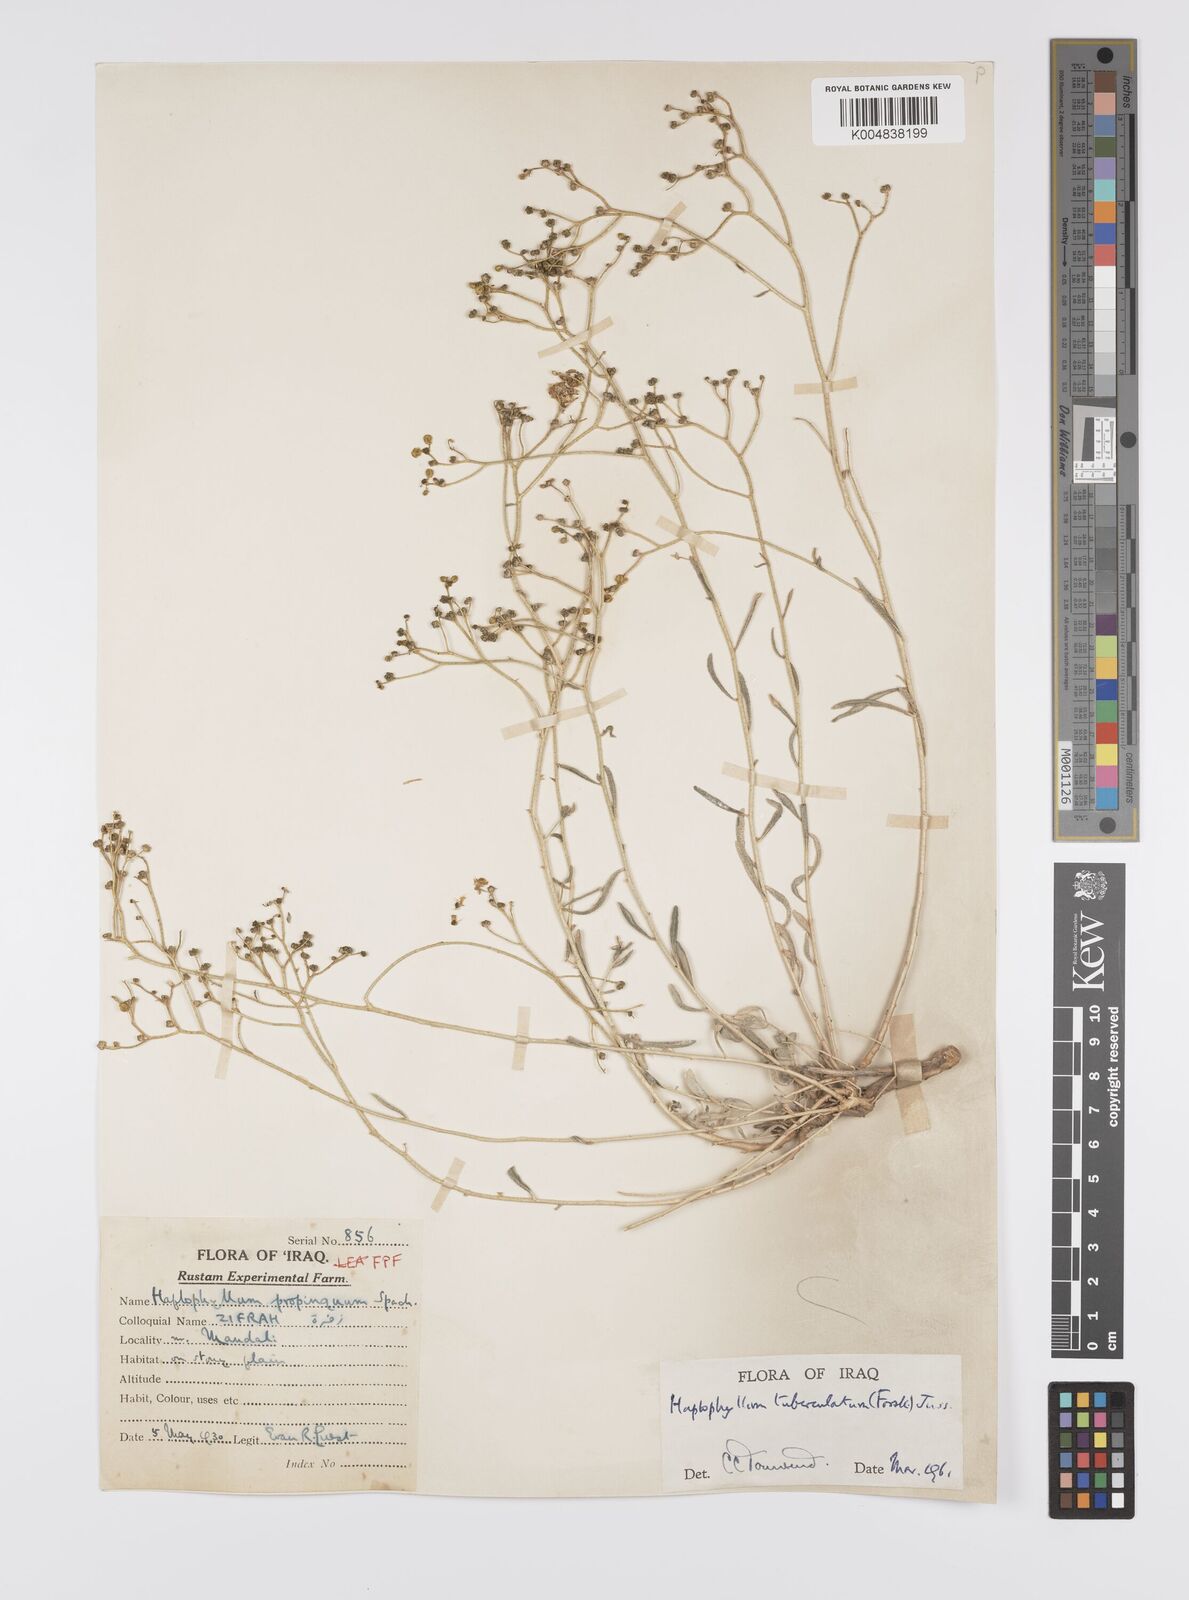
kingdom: Plantae
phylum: Tracheophyta
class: Magnoliopsida
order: Sapindales
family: Rutaceae
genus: Haplophyllum
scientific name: Haplophyllum tuberculatum
